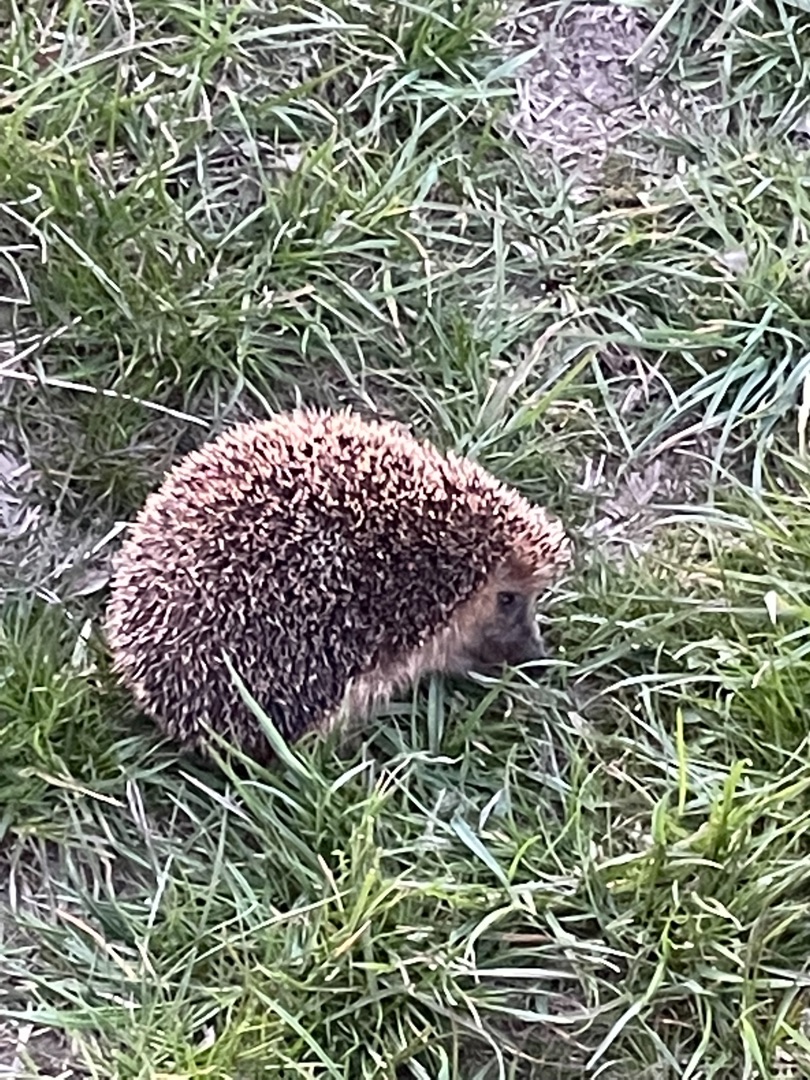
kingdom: Animalia
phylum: Chordata
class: Mammalia
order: Erinaceomorpha
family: Erinaceidae
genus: Erinaceus
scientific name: Erinaceus europaeus
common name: Pindsvin
